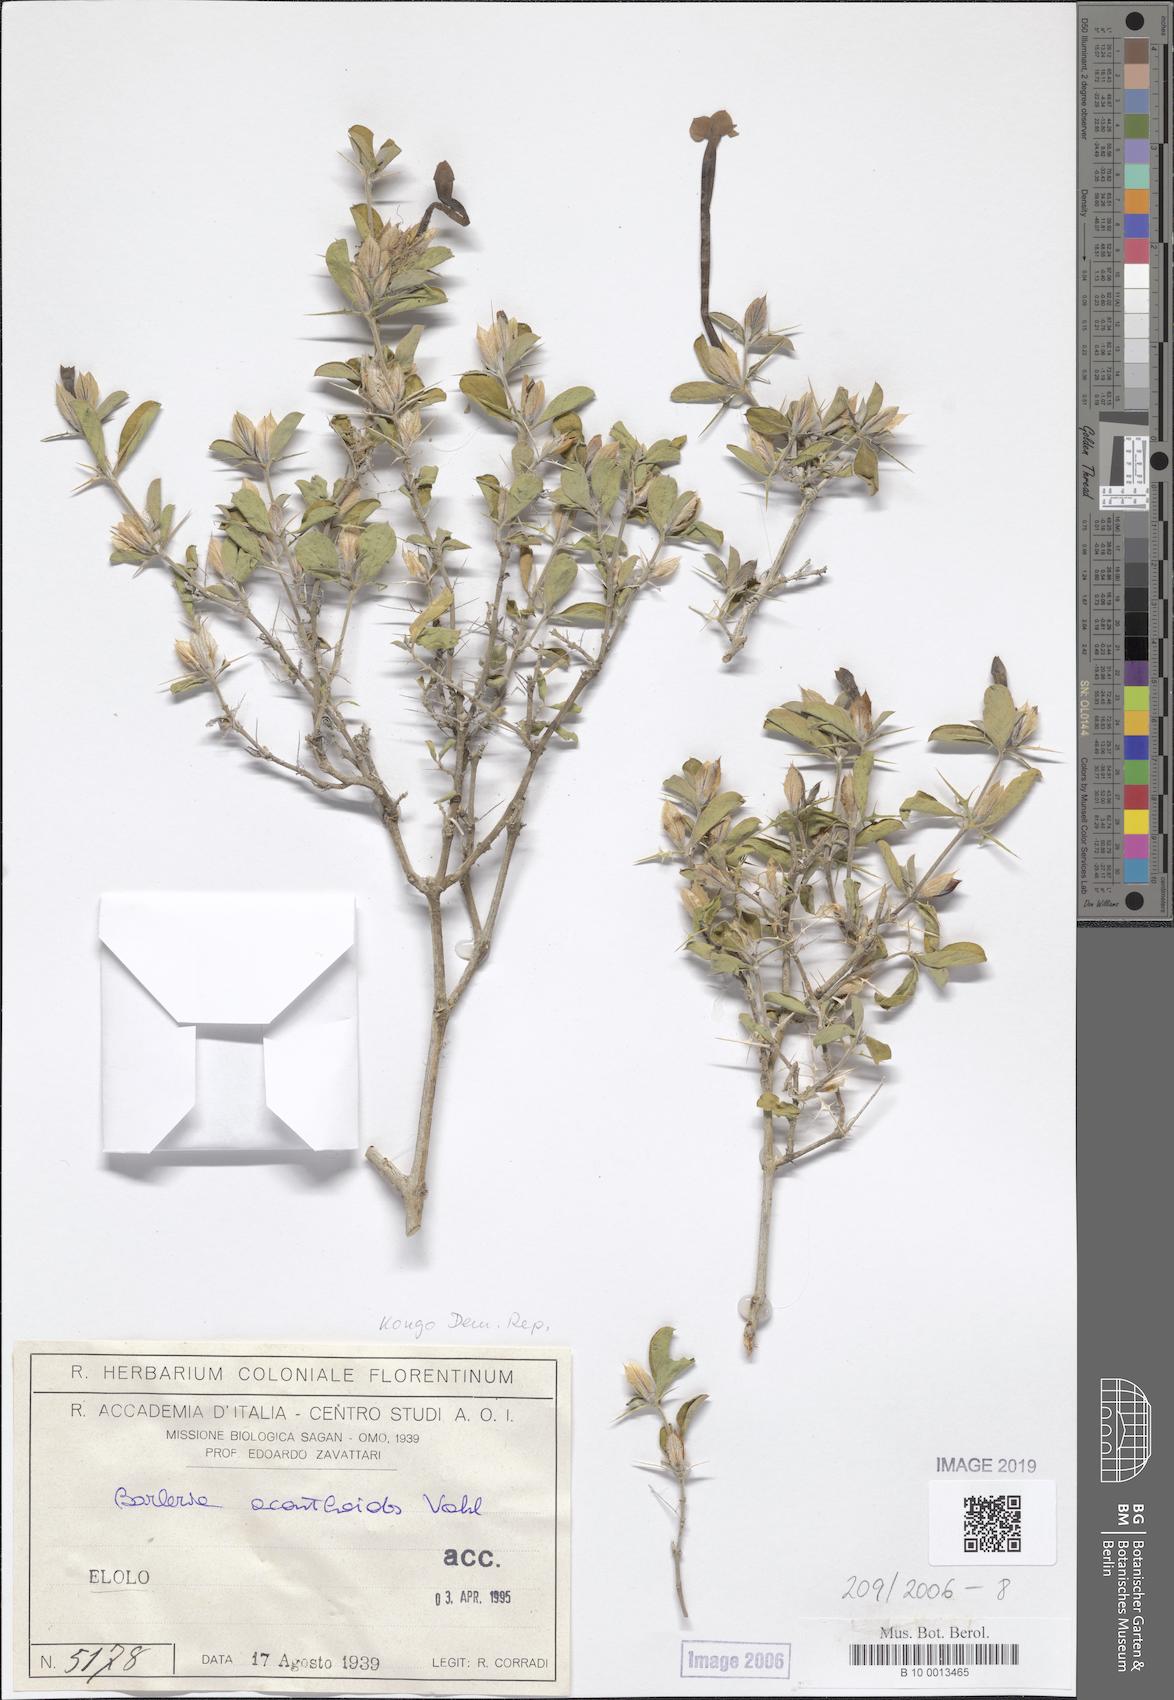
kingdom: Plantae
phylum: Tracheophyta
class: Magnoliopsida
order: Lamiales
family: Acanthaceae
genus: Barleria
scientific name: Barleria acanthoides
